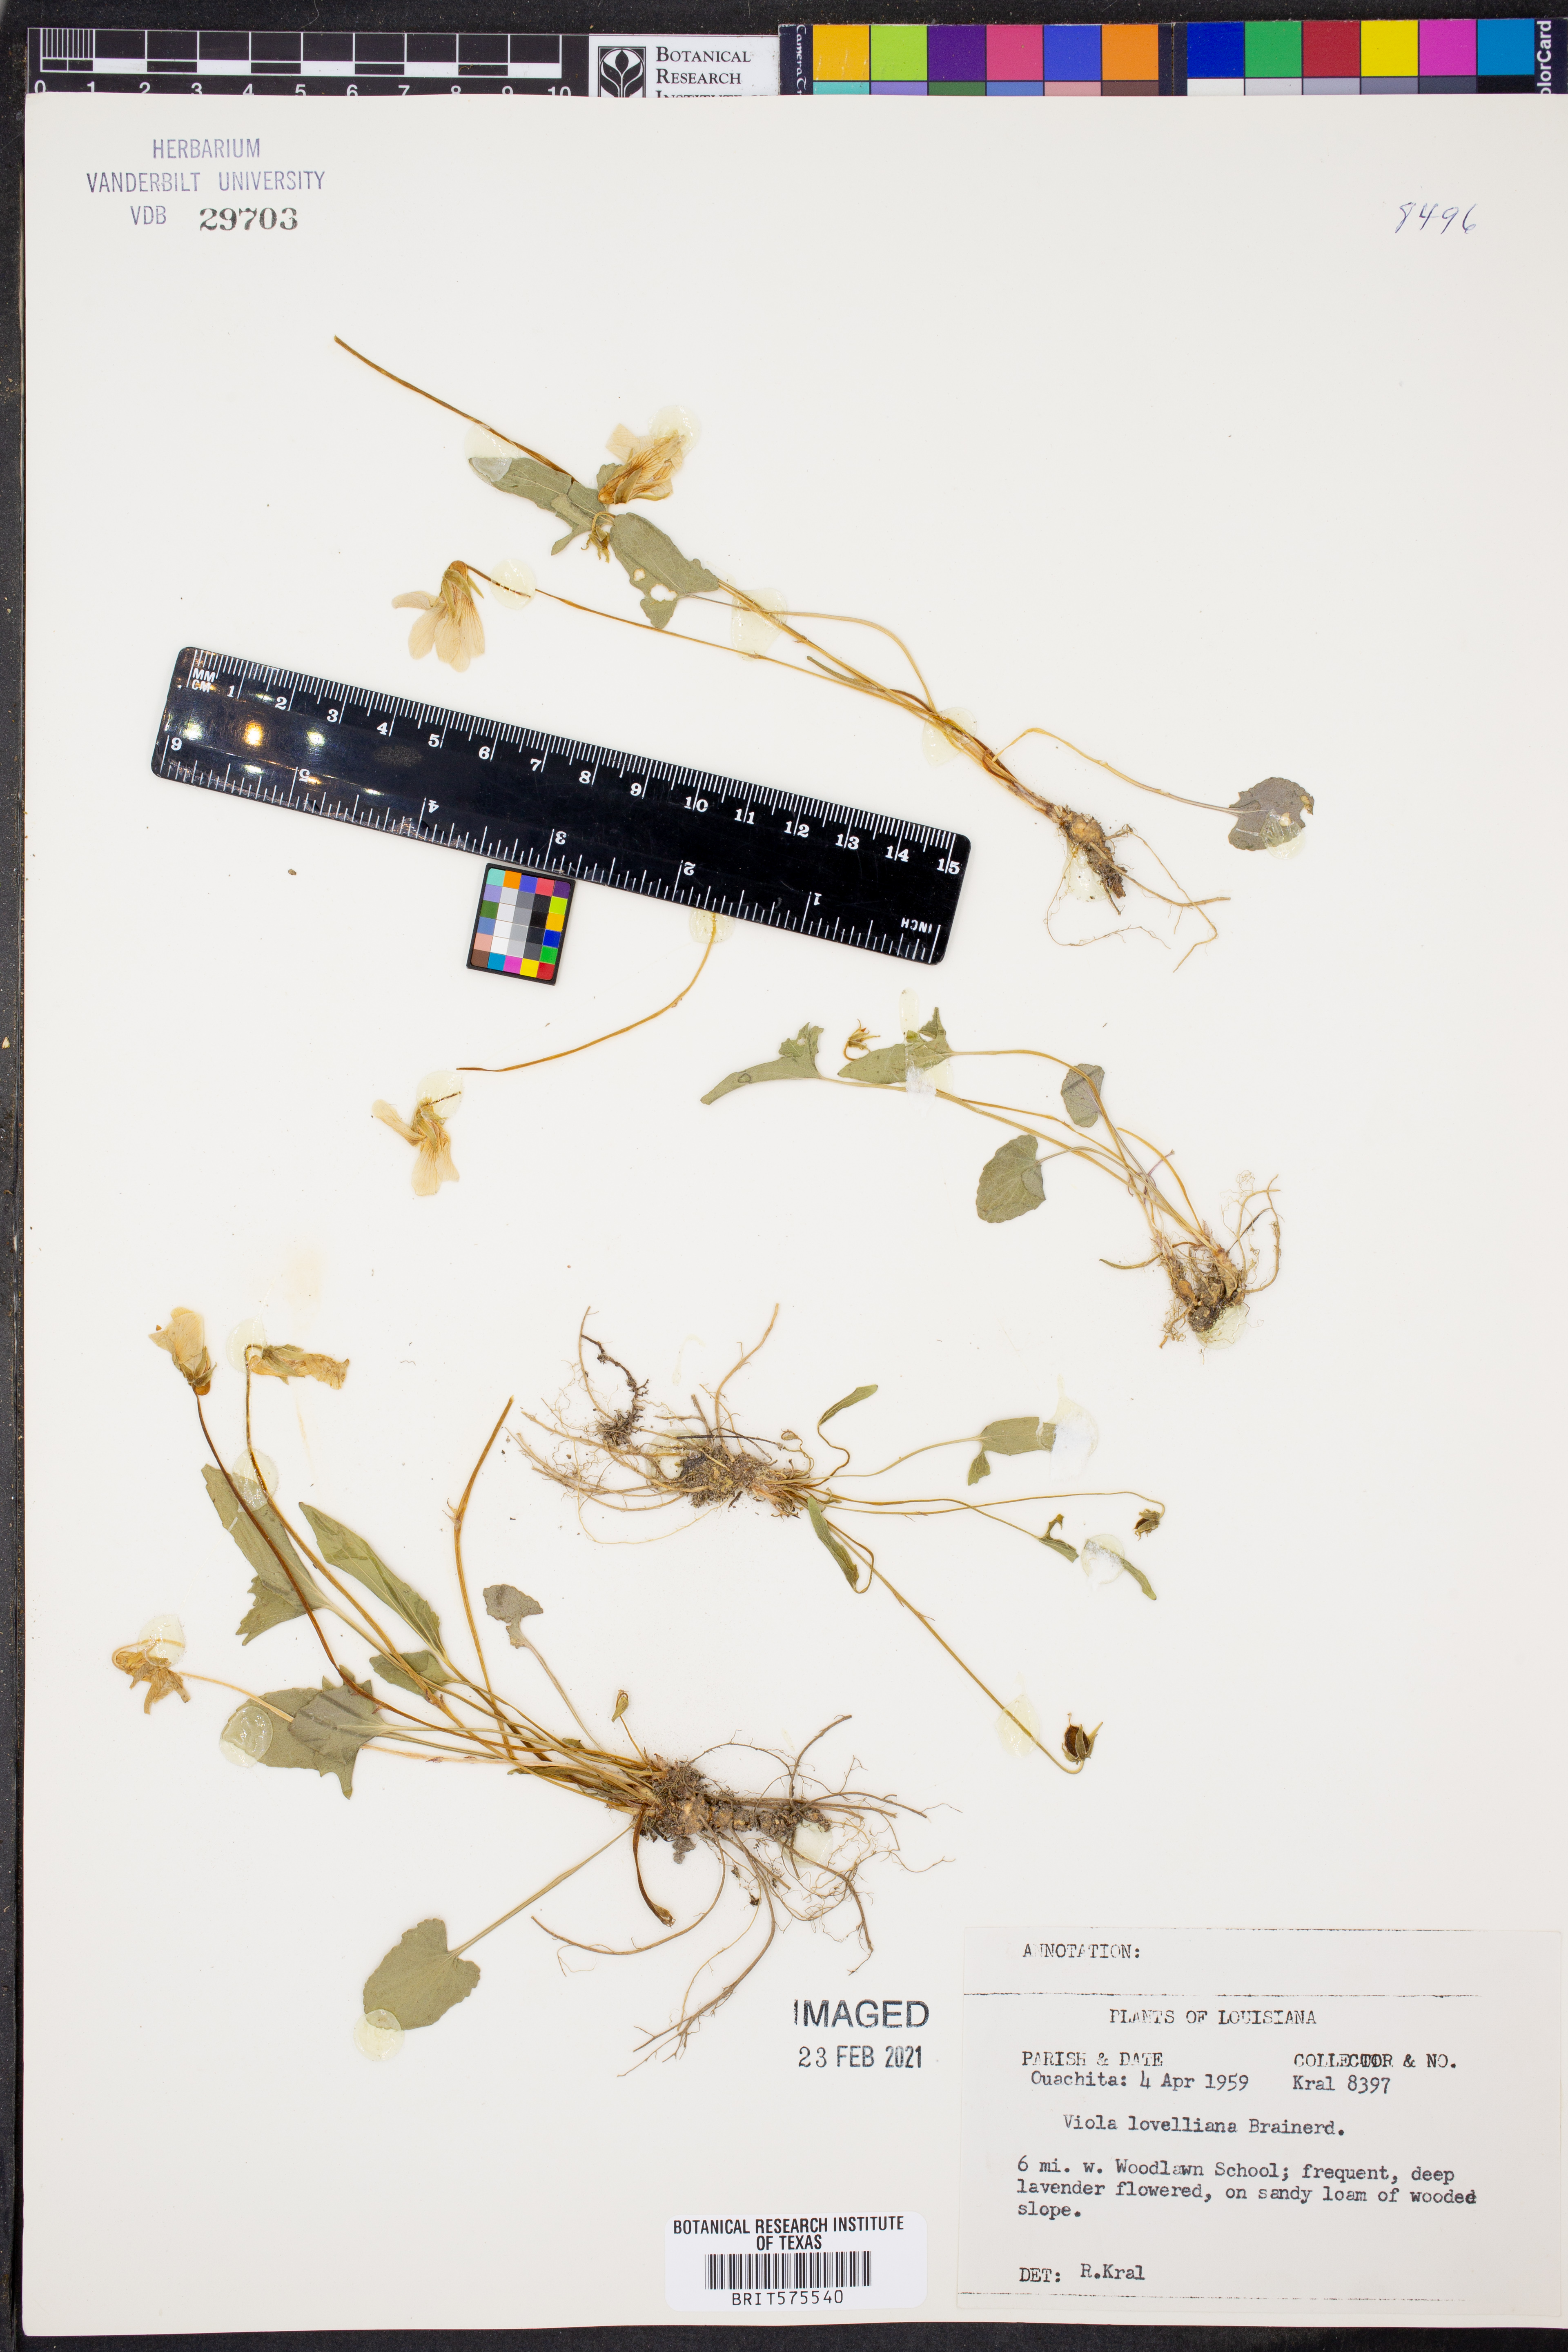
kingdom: Plantae
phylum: Tracheophyta
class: Magnoliopsida
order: Malpighiales
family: Violaceae
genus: Viola
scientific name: Viola lovelliana
